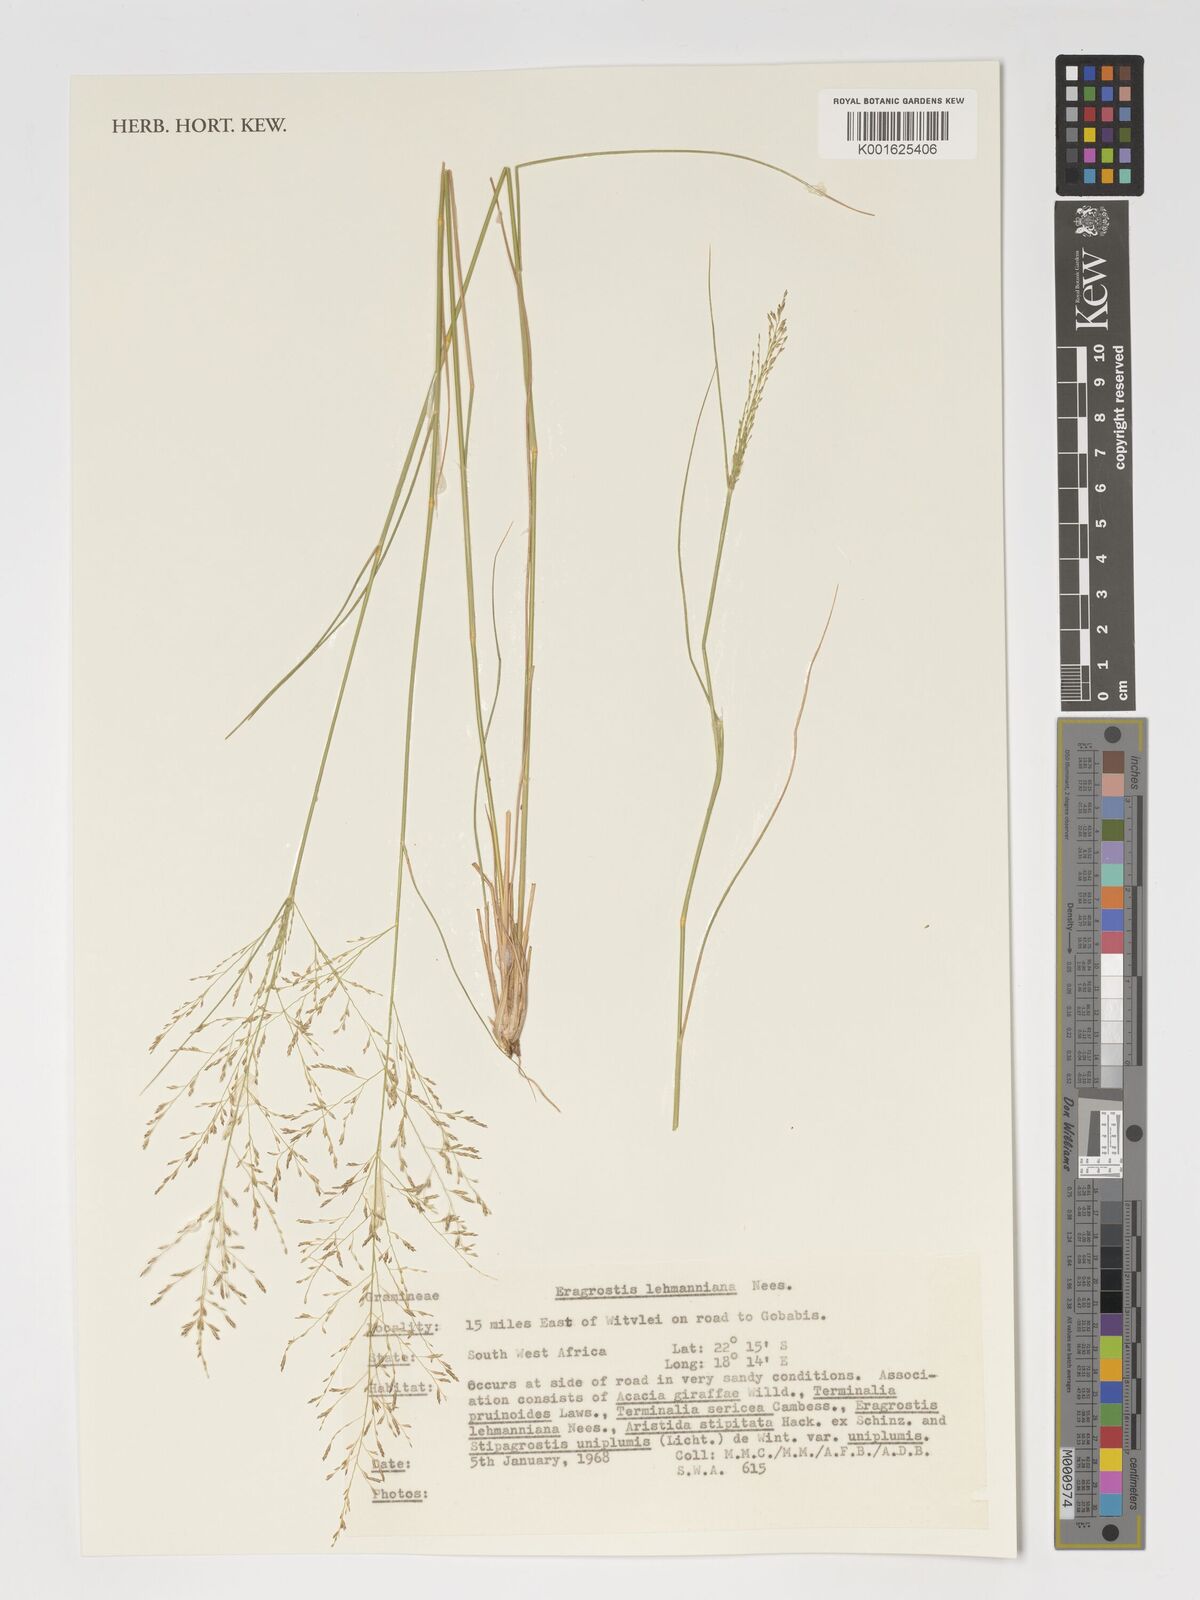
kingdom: Plantae
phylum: Tracheophyta
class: Liliopsida
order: Poales
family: Poaceae
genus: Eragrostis
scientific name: Eragrostis lehmanniana
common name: Lehmann lovegrass
